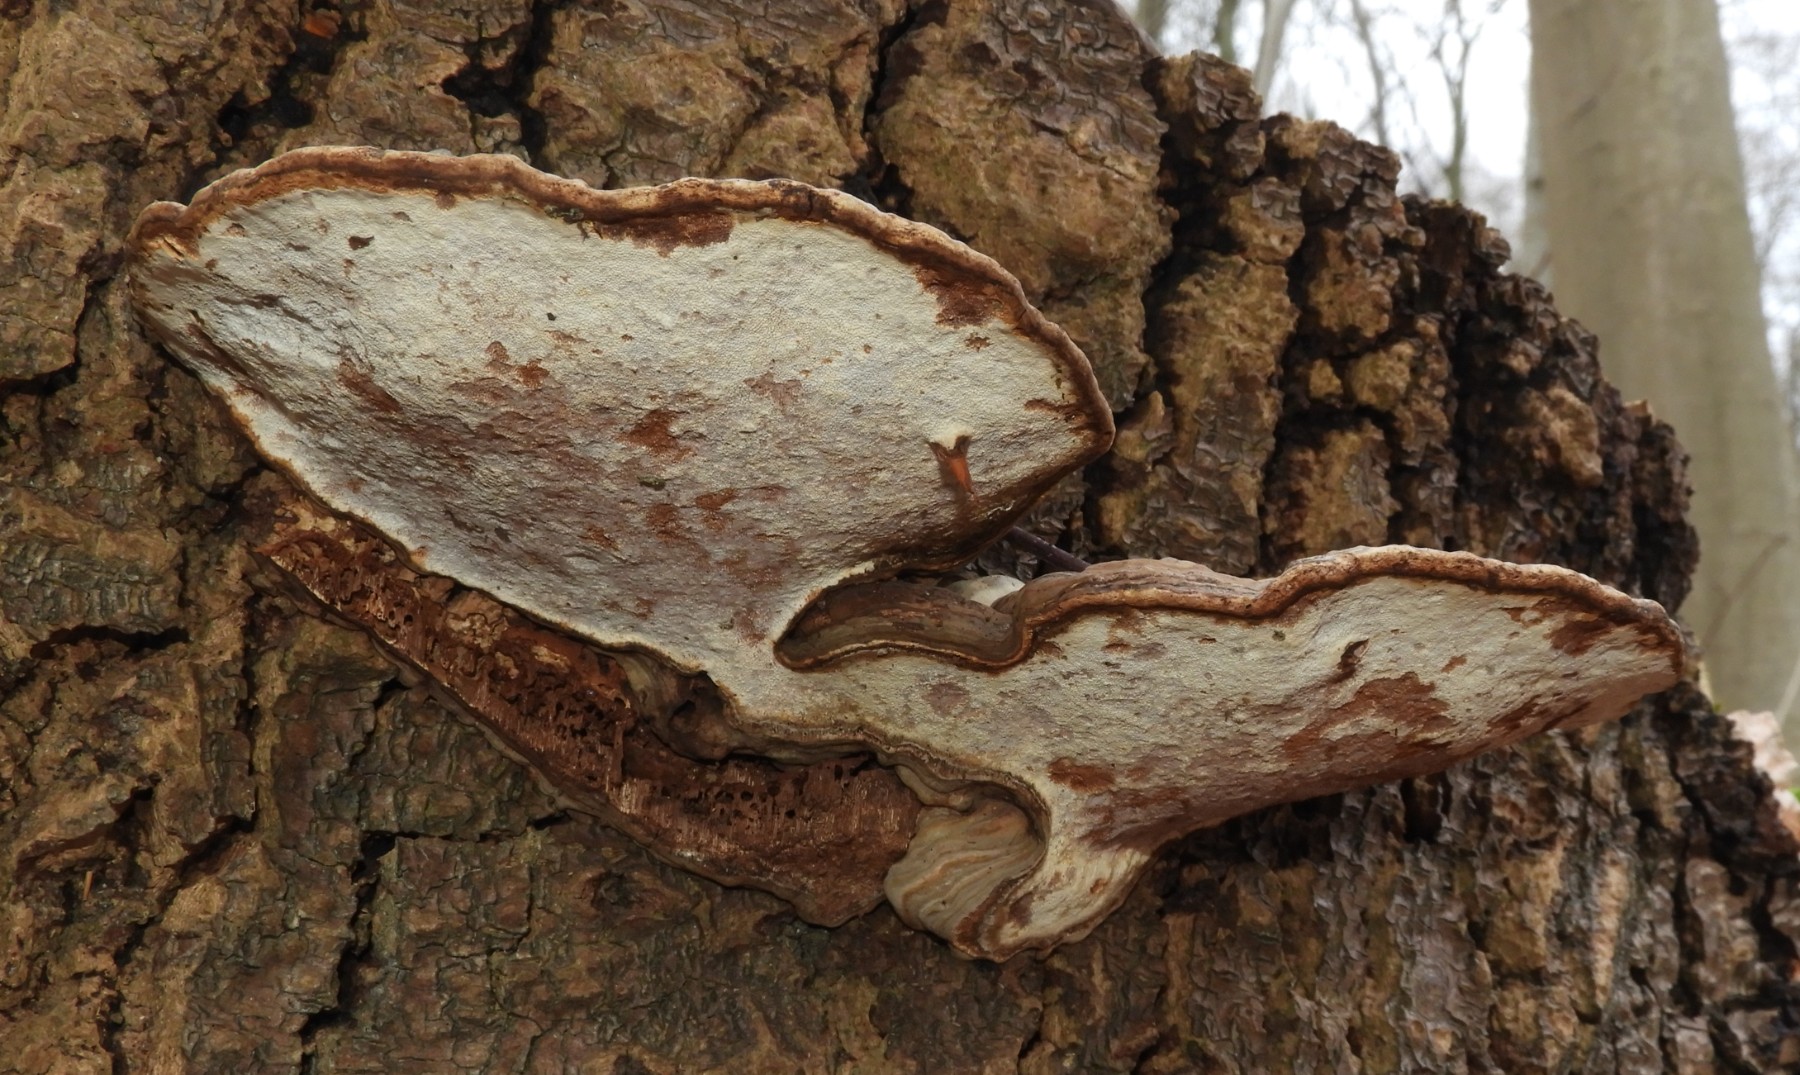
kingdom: Fungi
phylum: Basidiomycota
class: Agaricomycetes
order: Polyporales
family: Polyporaceae
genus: Ganoderma
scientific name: Ganoderma applanatum
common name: flad lakporesvamp
